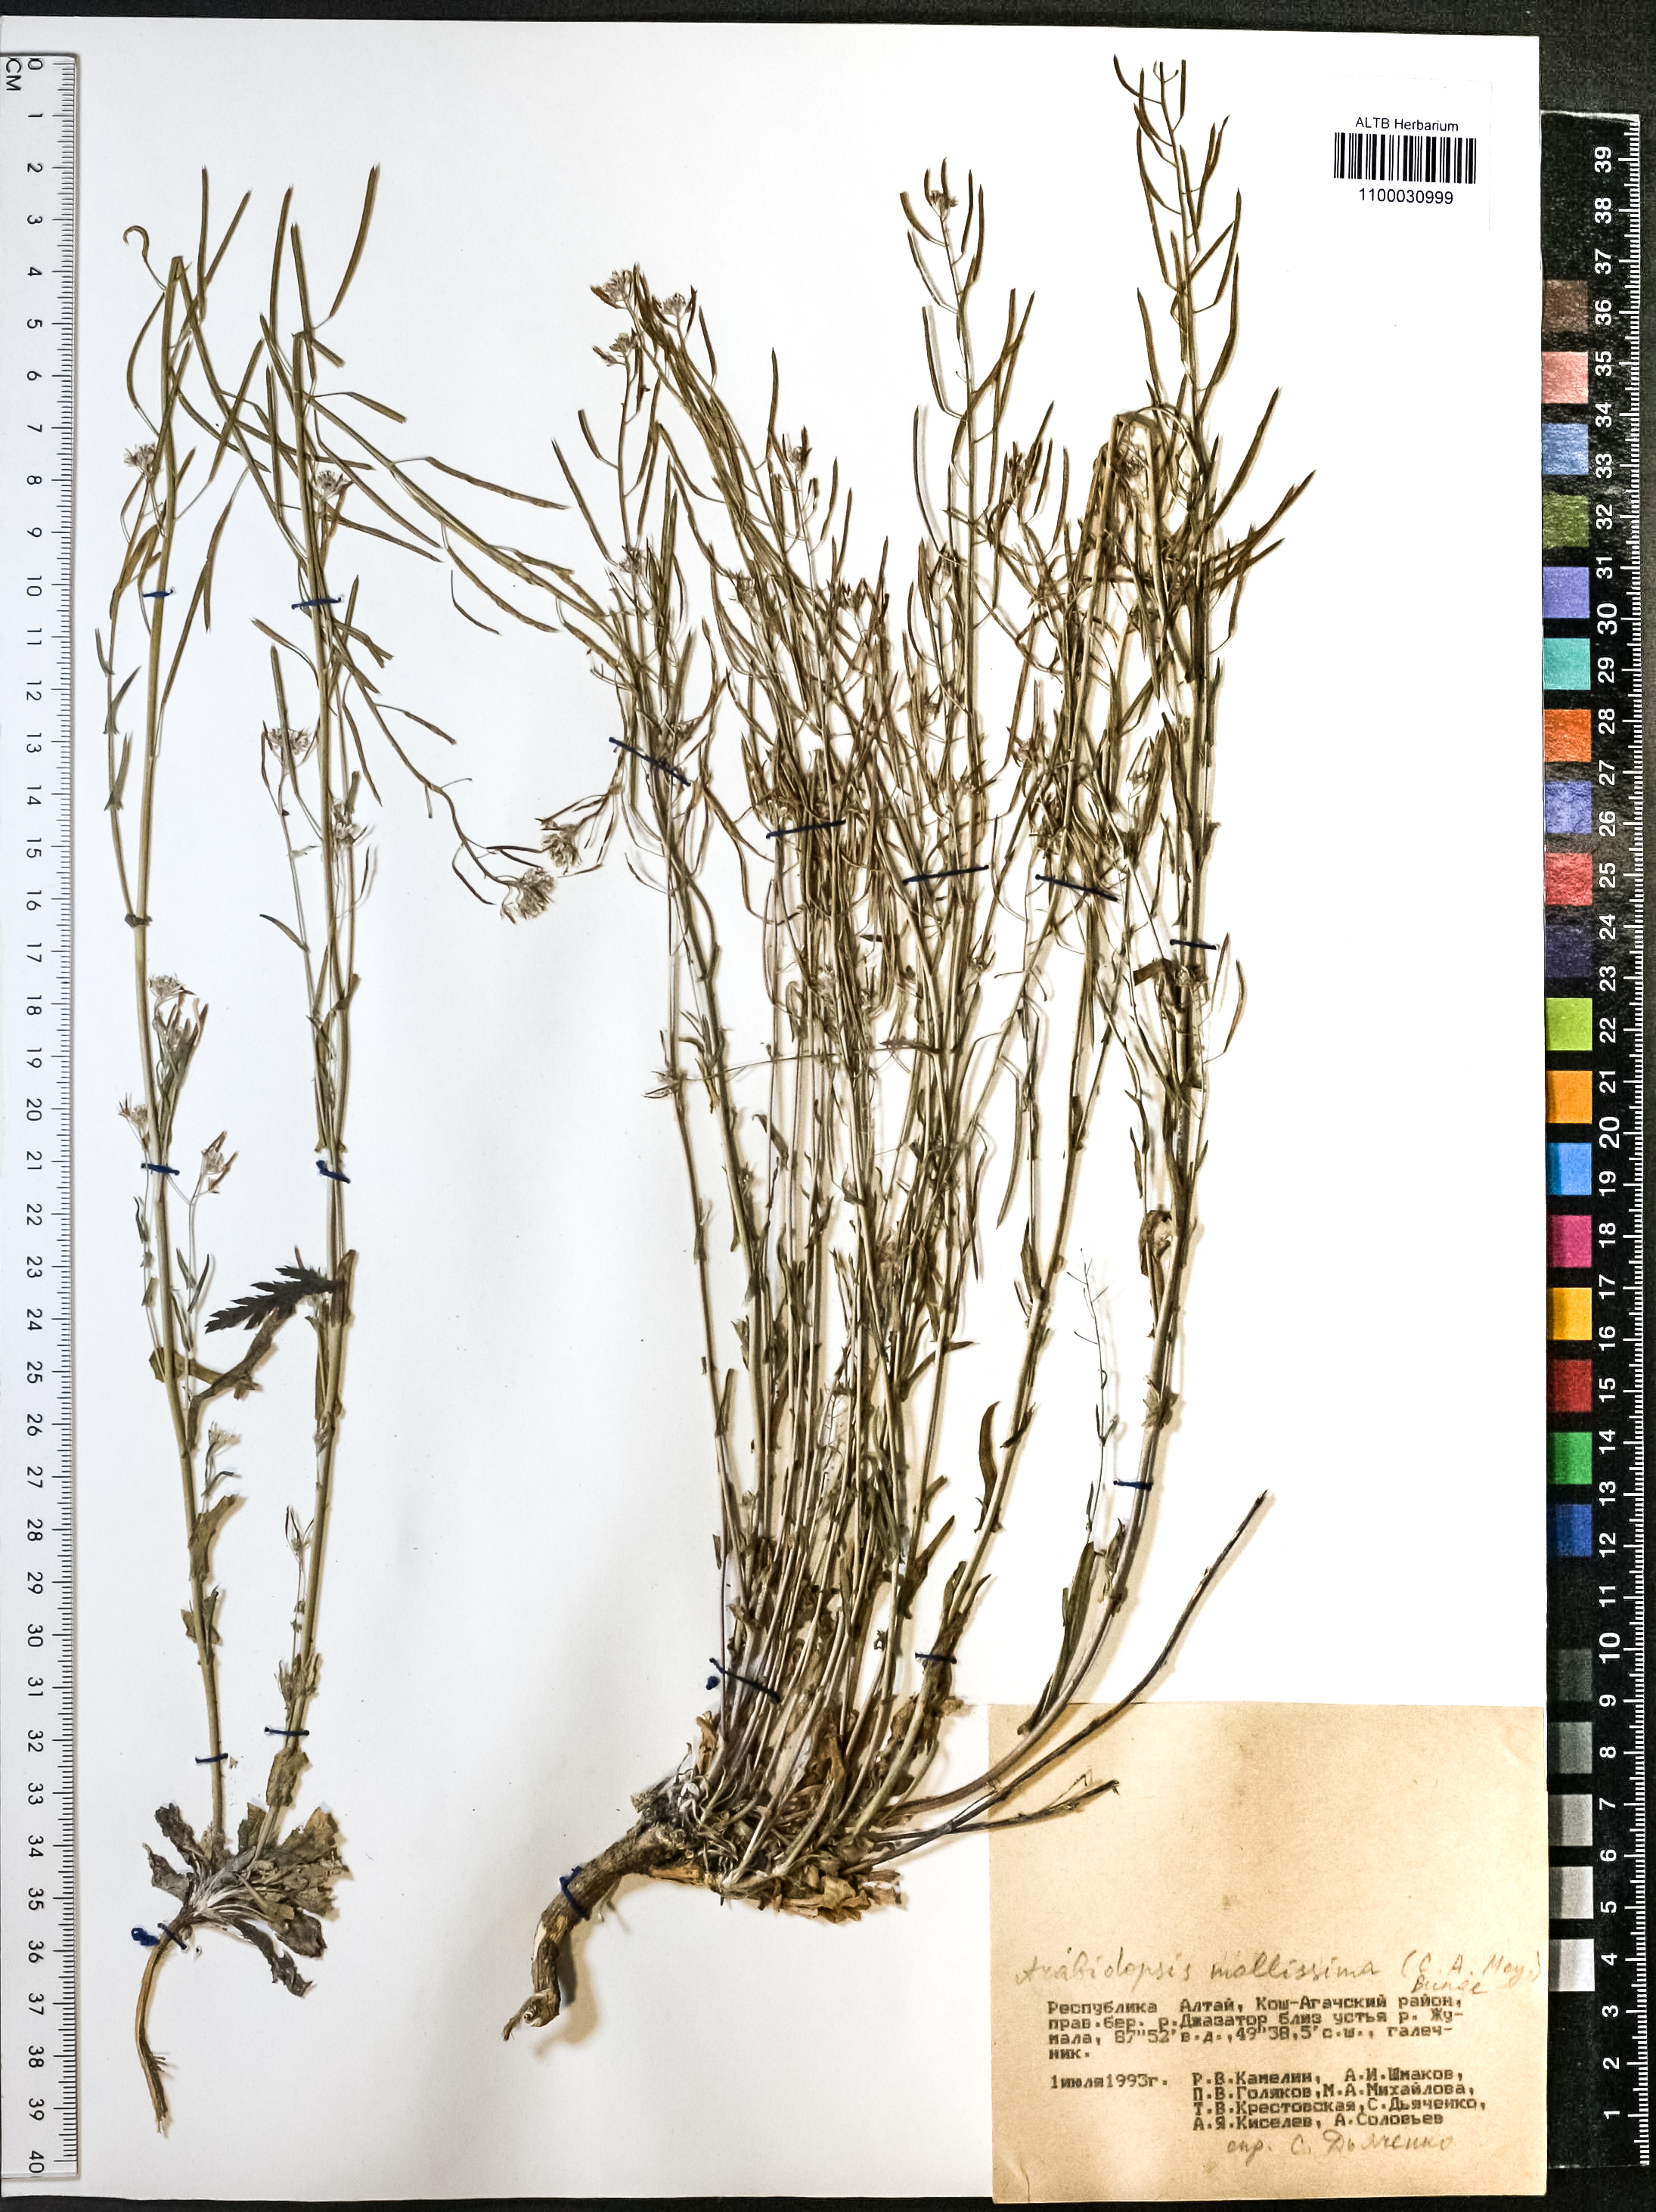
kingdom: Plantae
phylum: Tracheophyta
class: Magnoliopsida
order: Brassicales
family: Brassicaceae
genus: Crucihimalaya
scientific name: Crucihimalaya mollissima
